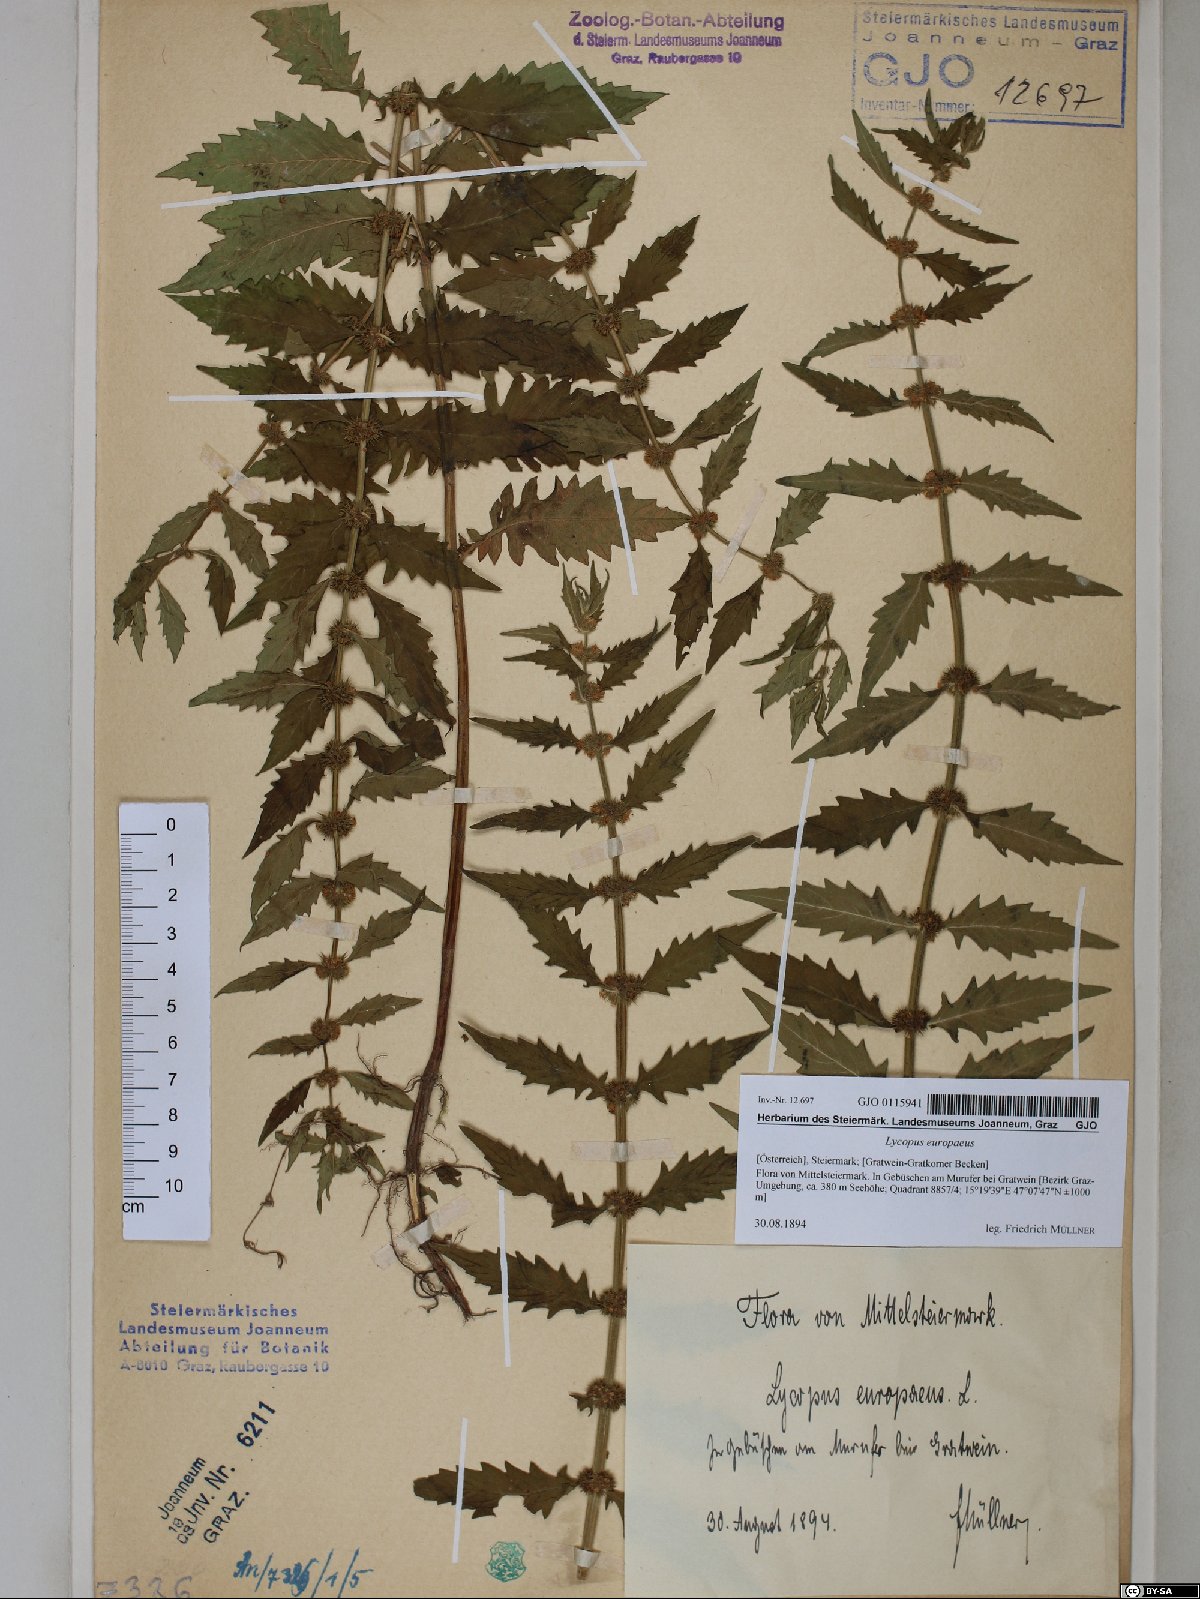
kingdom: Plantae
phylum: Tracheophyta
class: Magnoliopsida
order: Lamiales
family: Lamiaceae
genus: Lycopus
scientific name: Lycopus europaeus
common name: European bugleweed
